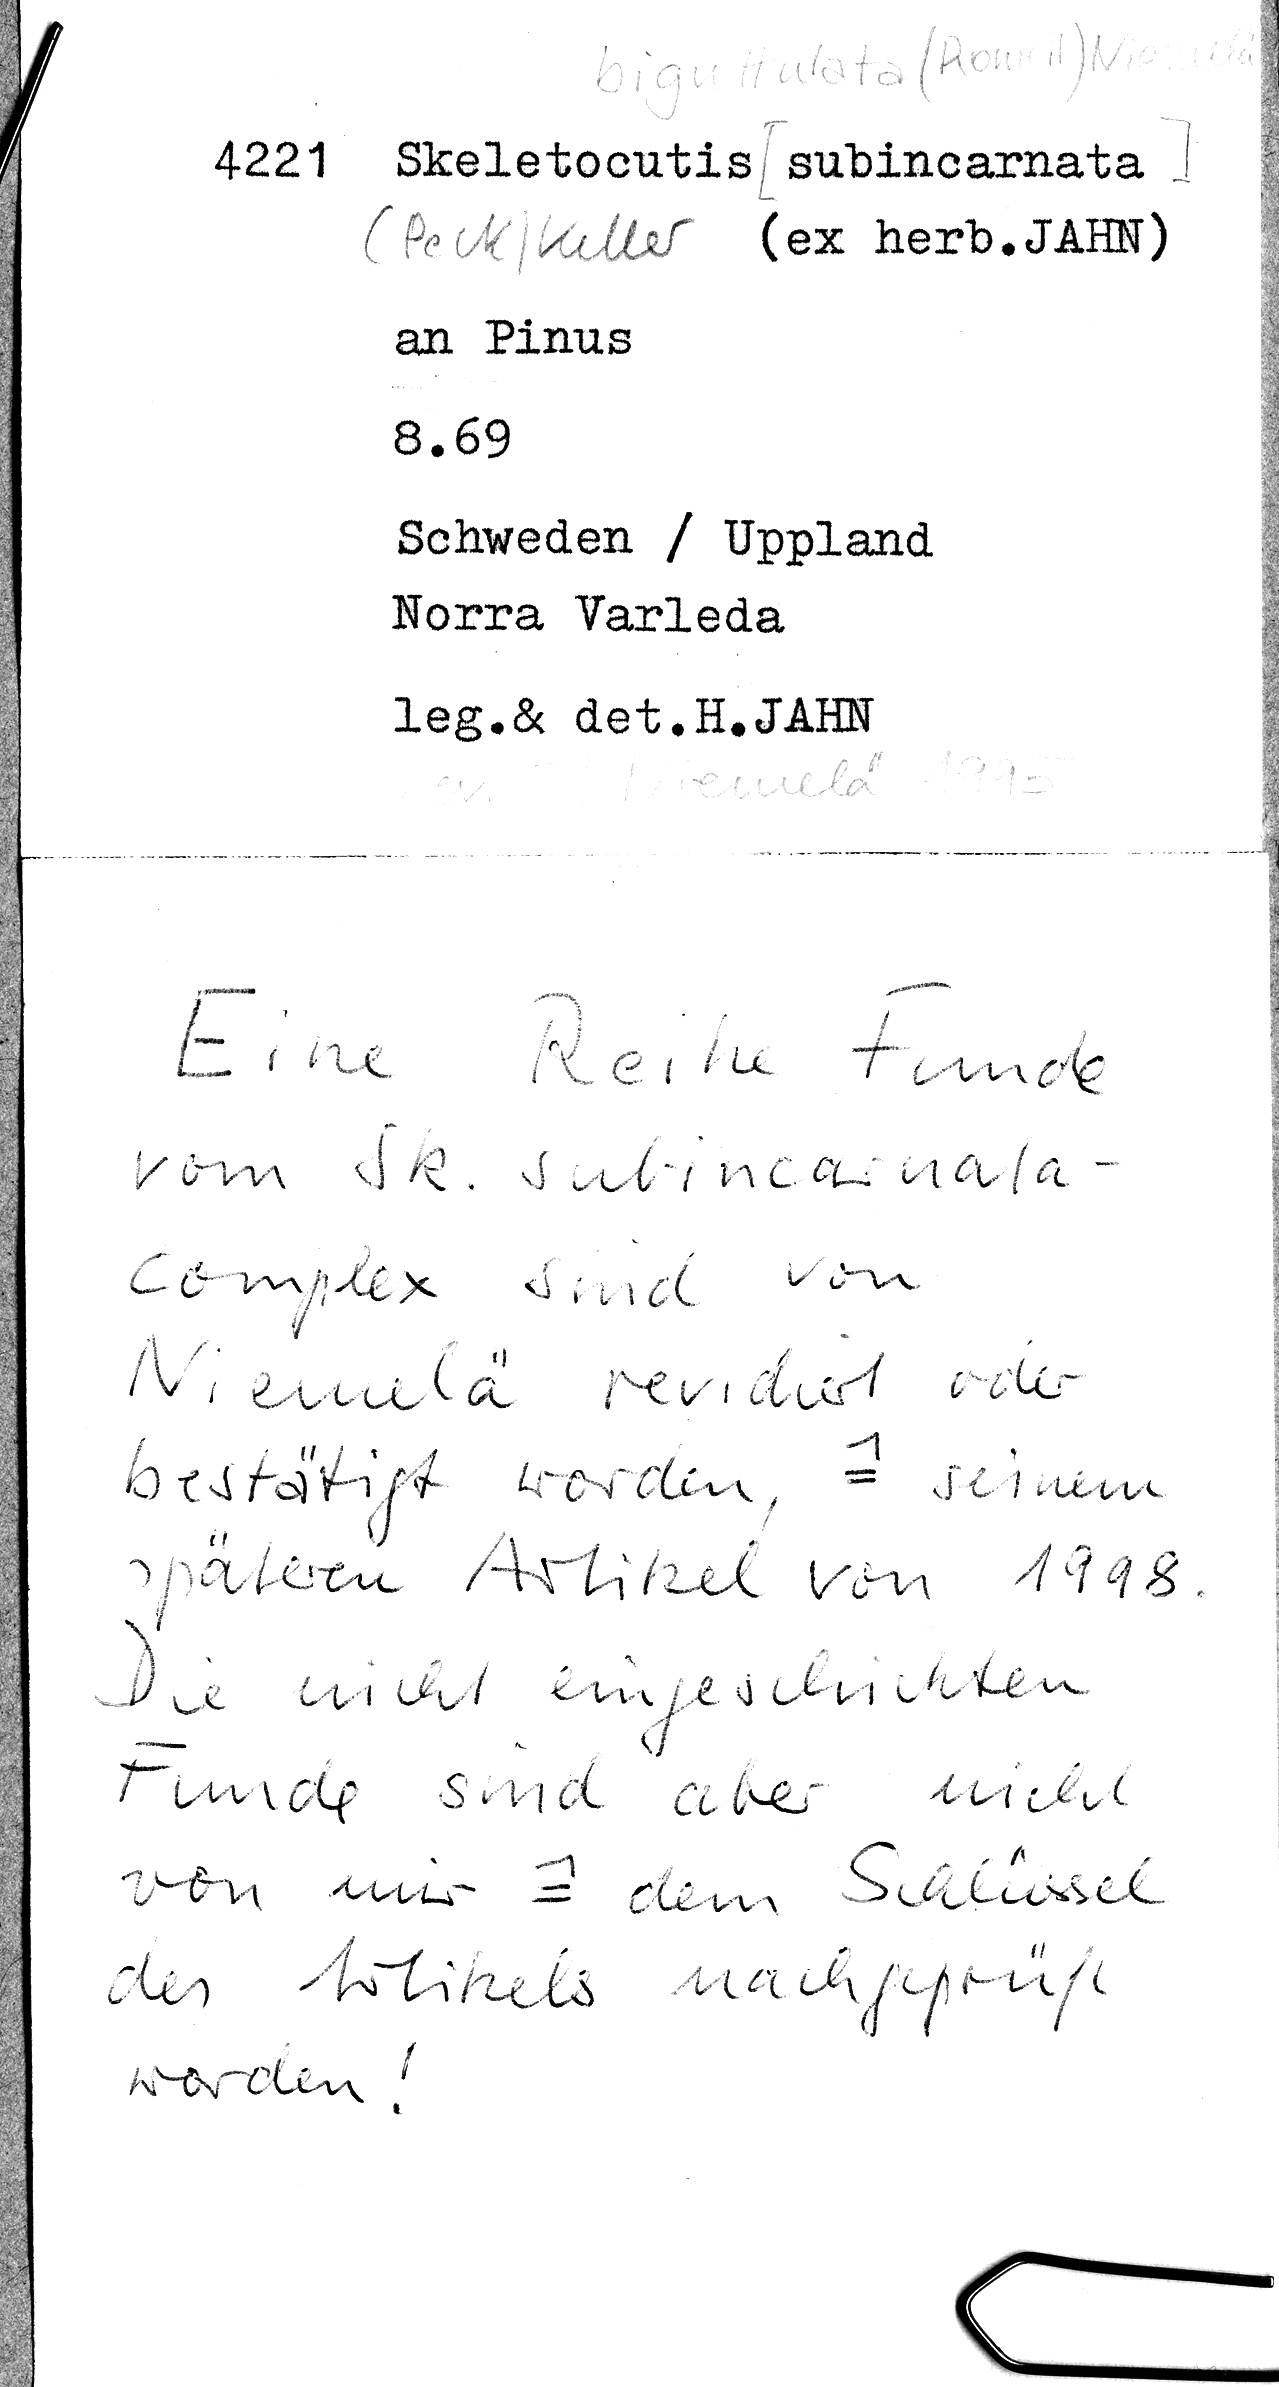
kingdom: Plantae
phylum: Tracheophyta
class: Pinopsida
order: Pinales
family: Pinaceae
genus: Pinus
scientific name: Pinus
